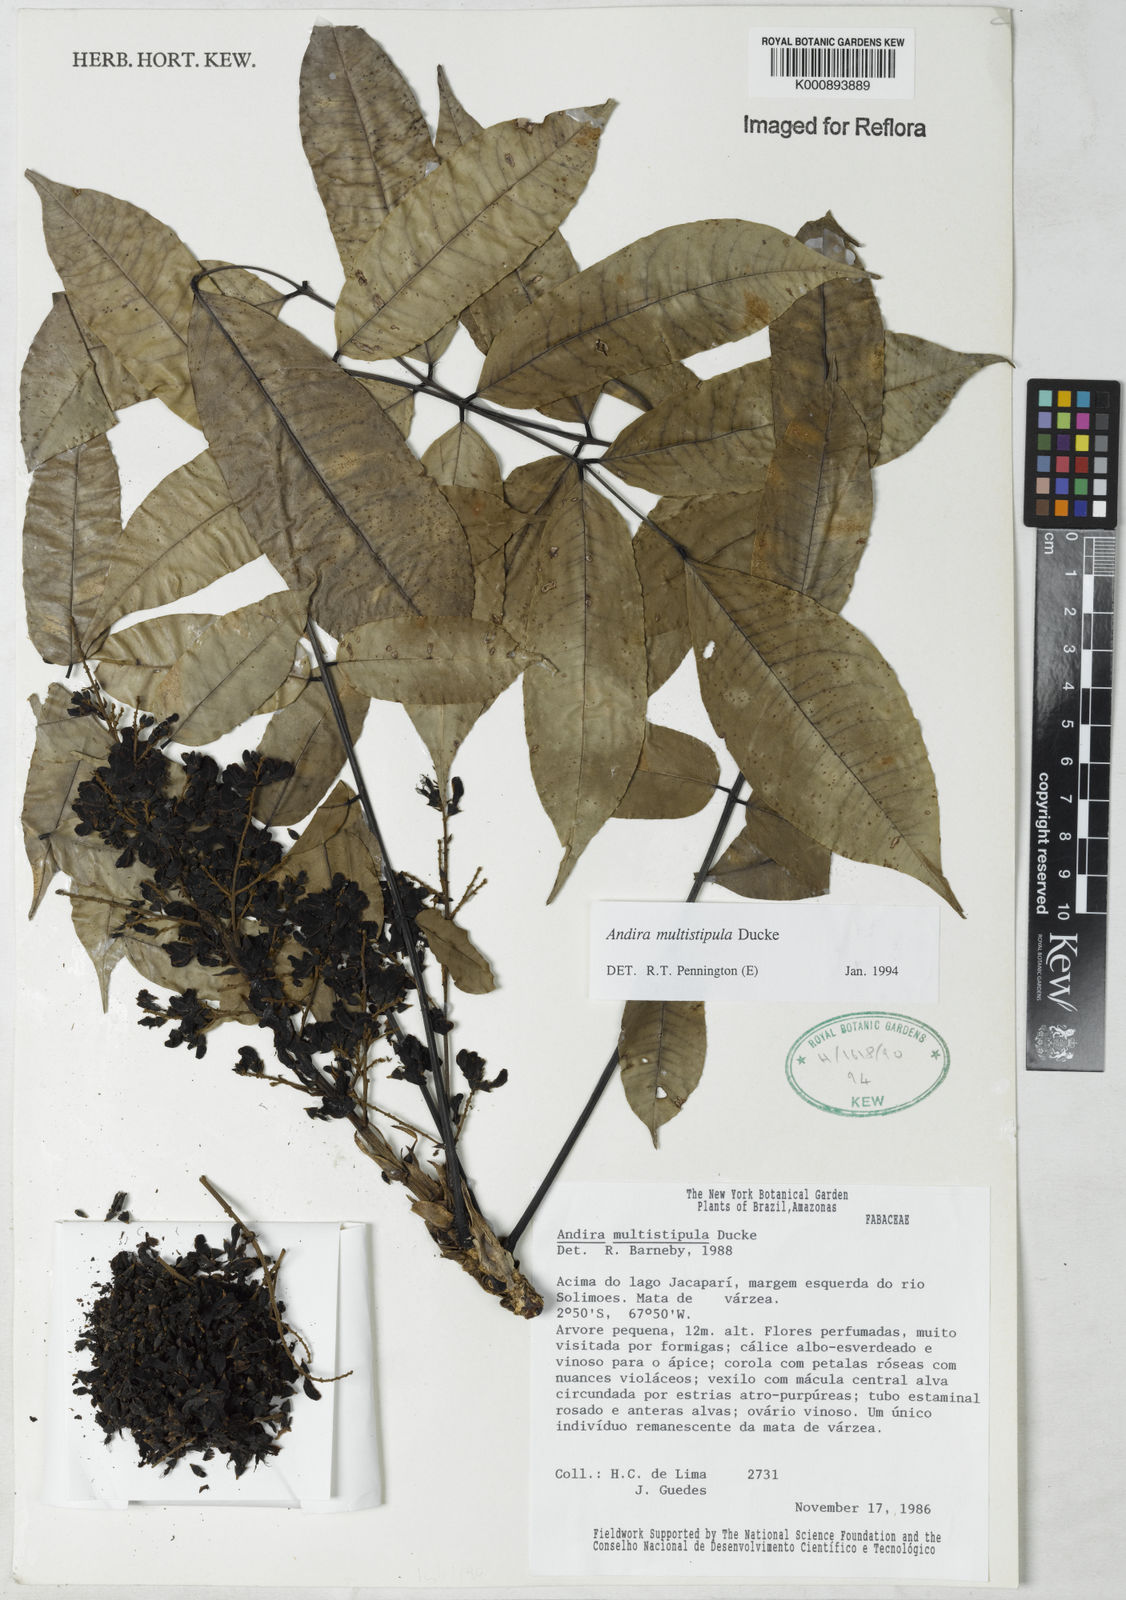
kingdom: Plantae
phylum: Tracheophyta
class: Magnoliopsida
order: Fabales
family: Fabaceae
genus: Andira
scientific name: Andira multistipula
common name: Pisho
